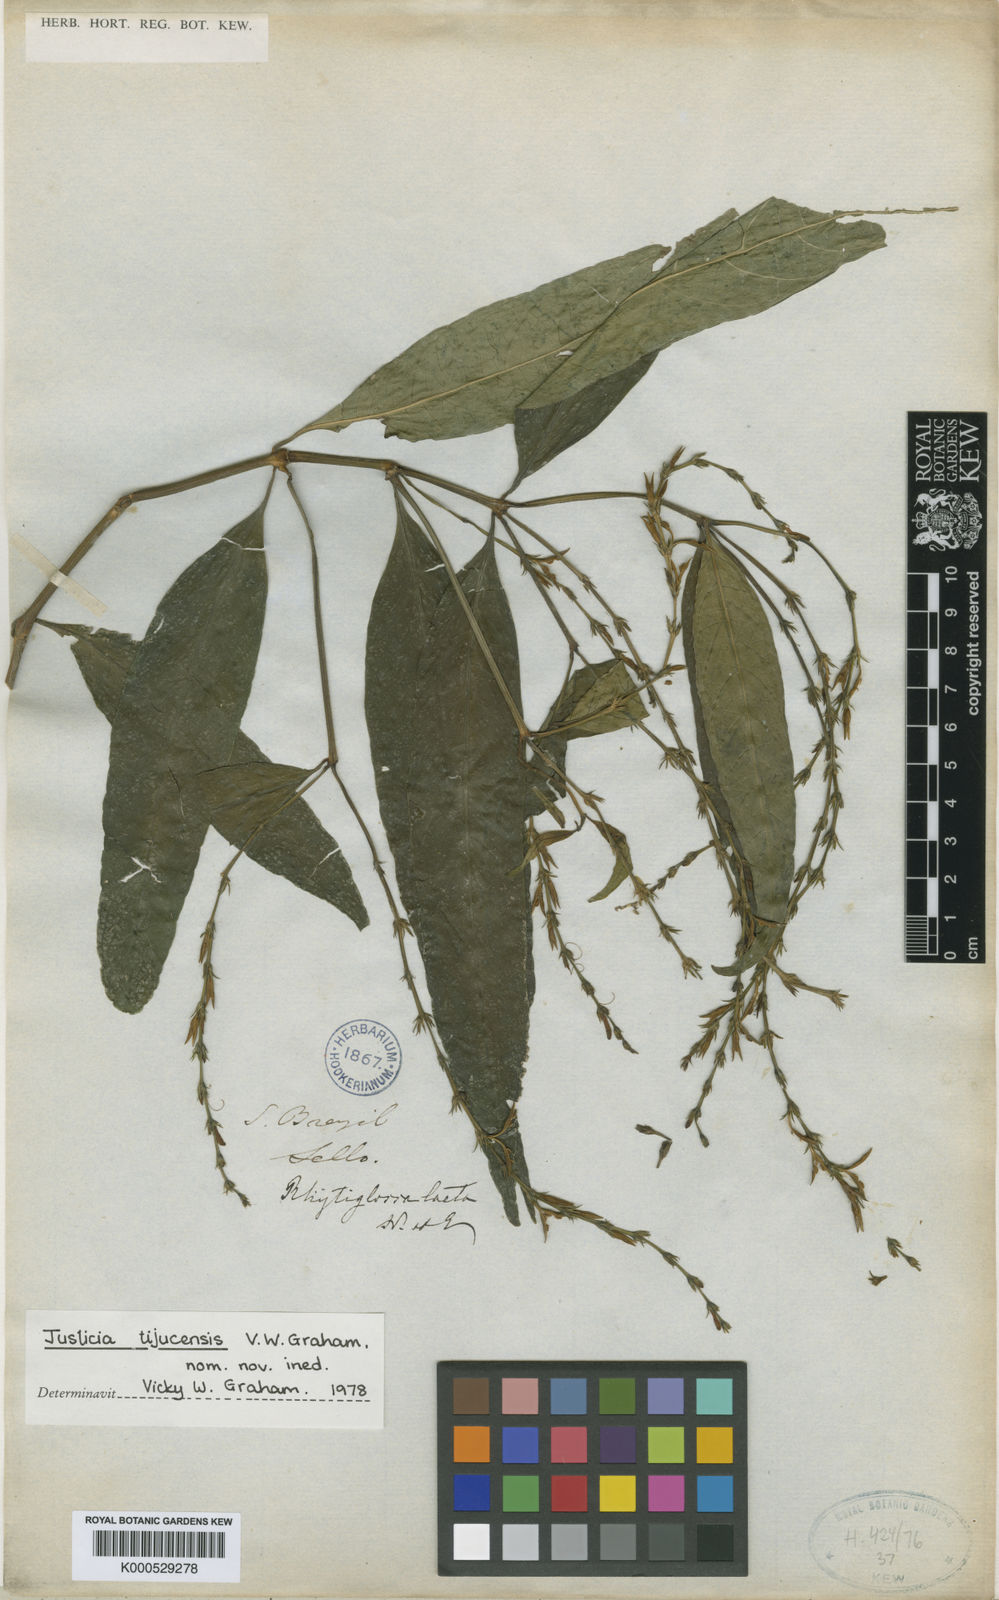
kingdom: Plantae
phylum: Tracheophyta
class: Magnoliopsida
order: Lamiales
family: Acanthaceae
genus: Dianthera
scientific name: Dianthera laeta
